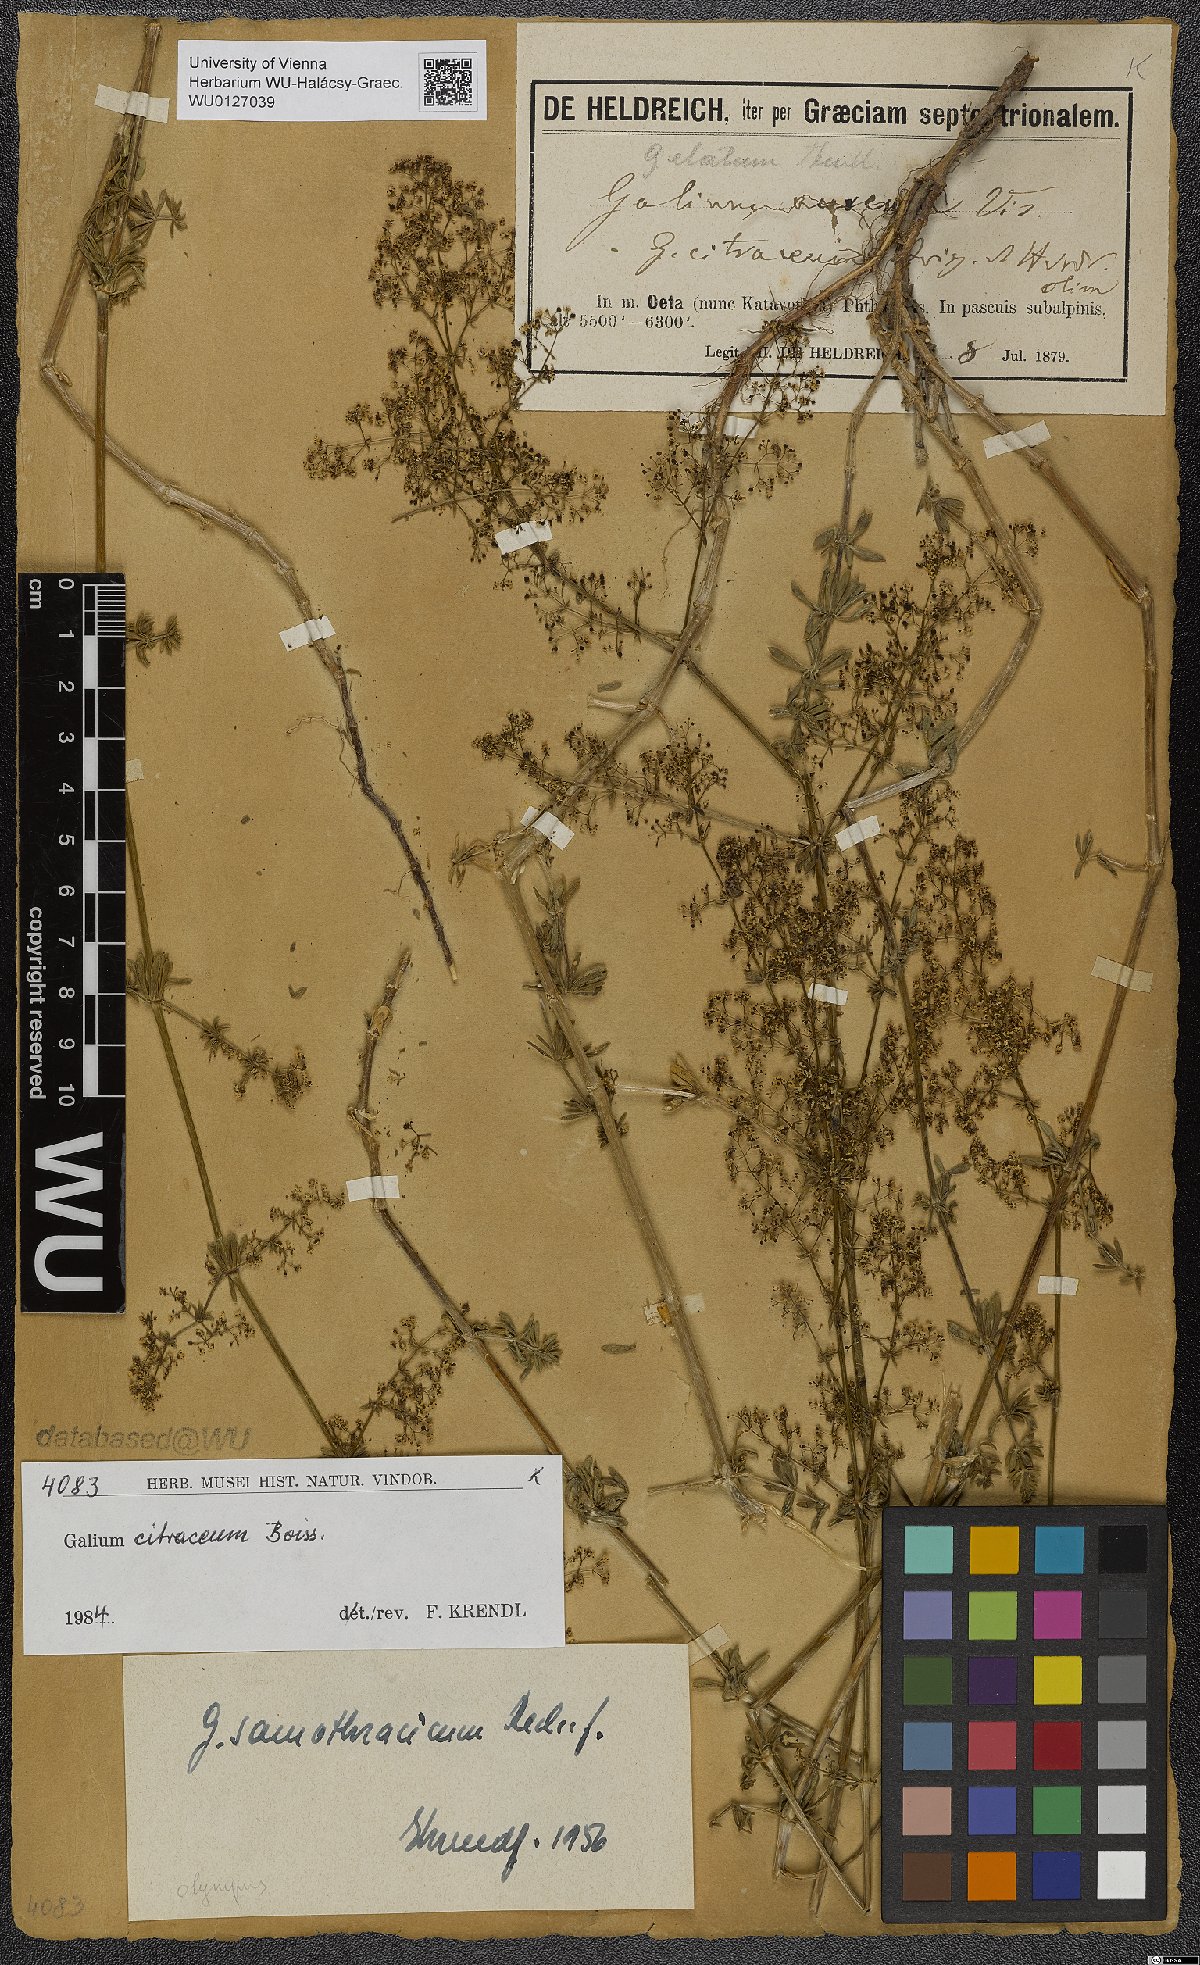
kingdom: Plantae
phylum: Tracheophyta
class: Magnoliopsida
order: Gentianales
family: Rubiaceae
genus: Galium
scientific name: Galium citraceum
